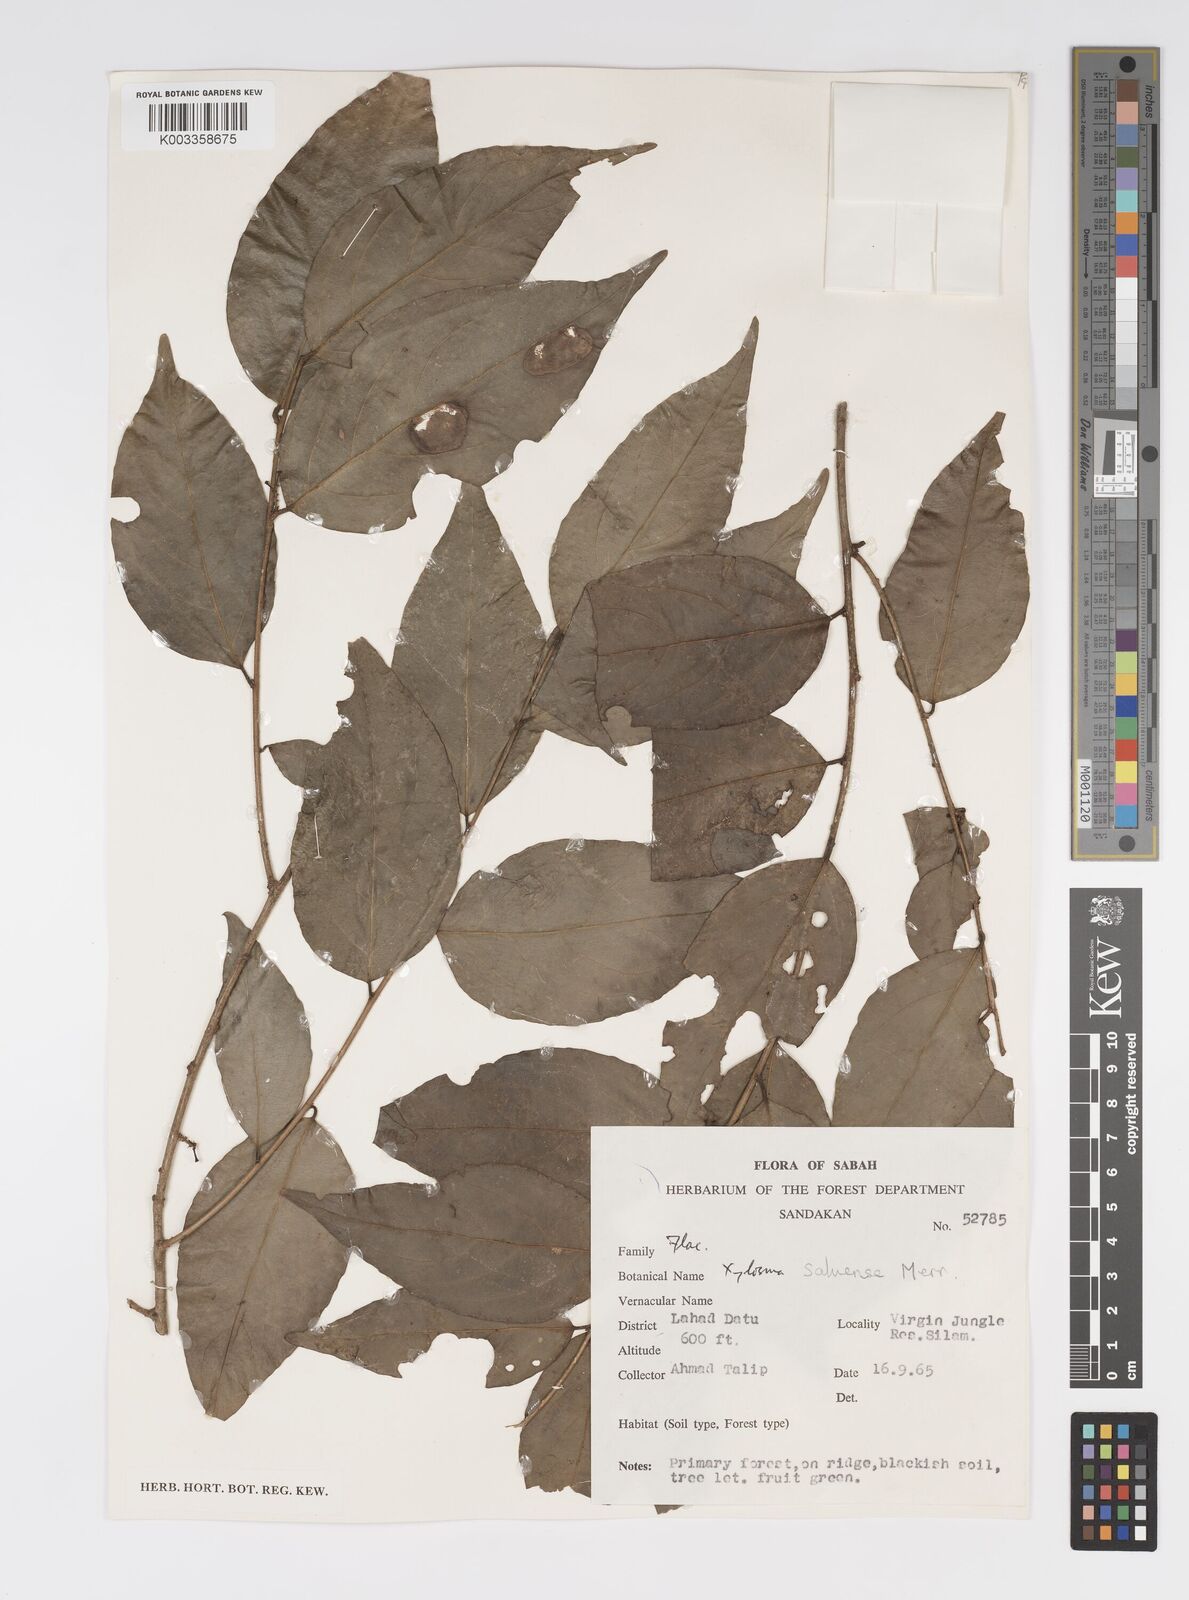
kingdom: Plantae
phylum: Tracheophyta
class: Magnoliopsida
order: Malpighiales
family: Salicaceae
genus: Xylosma
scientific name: Xylosma suluensis
